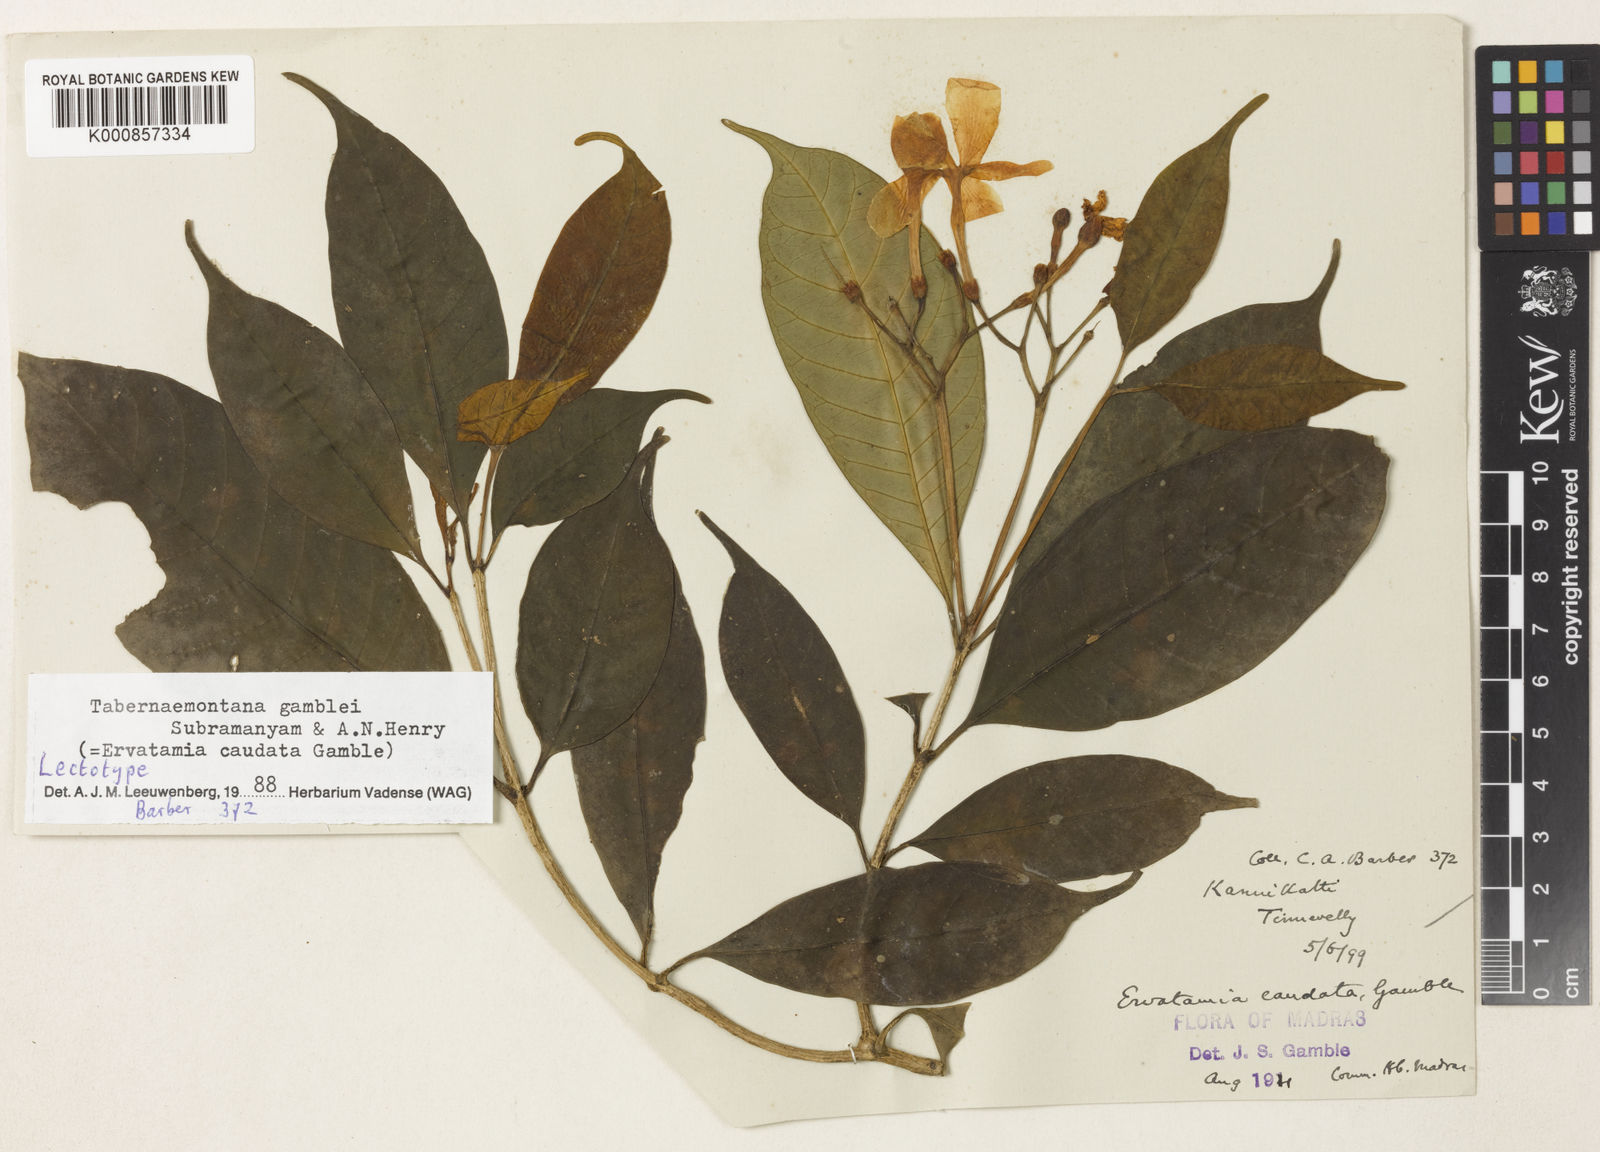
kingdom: Plantae
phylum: Tracheophyta
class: Magnoliopsida
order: Gentianales
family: Apocynaceae
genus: Tabernaemontana
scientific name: Tabernaemontana gamblei
